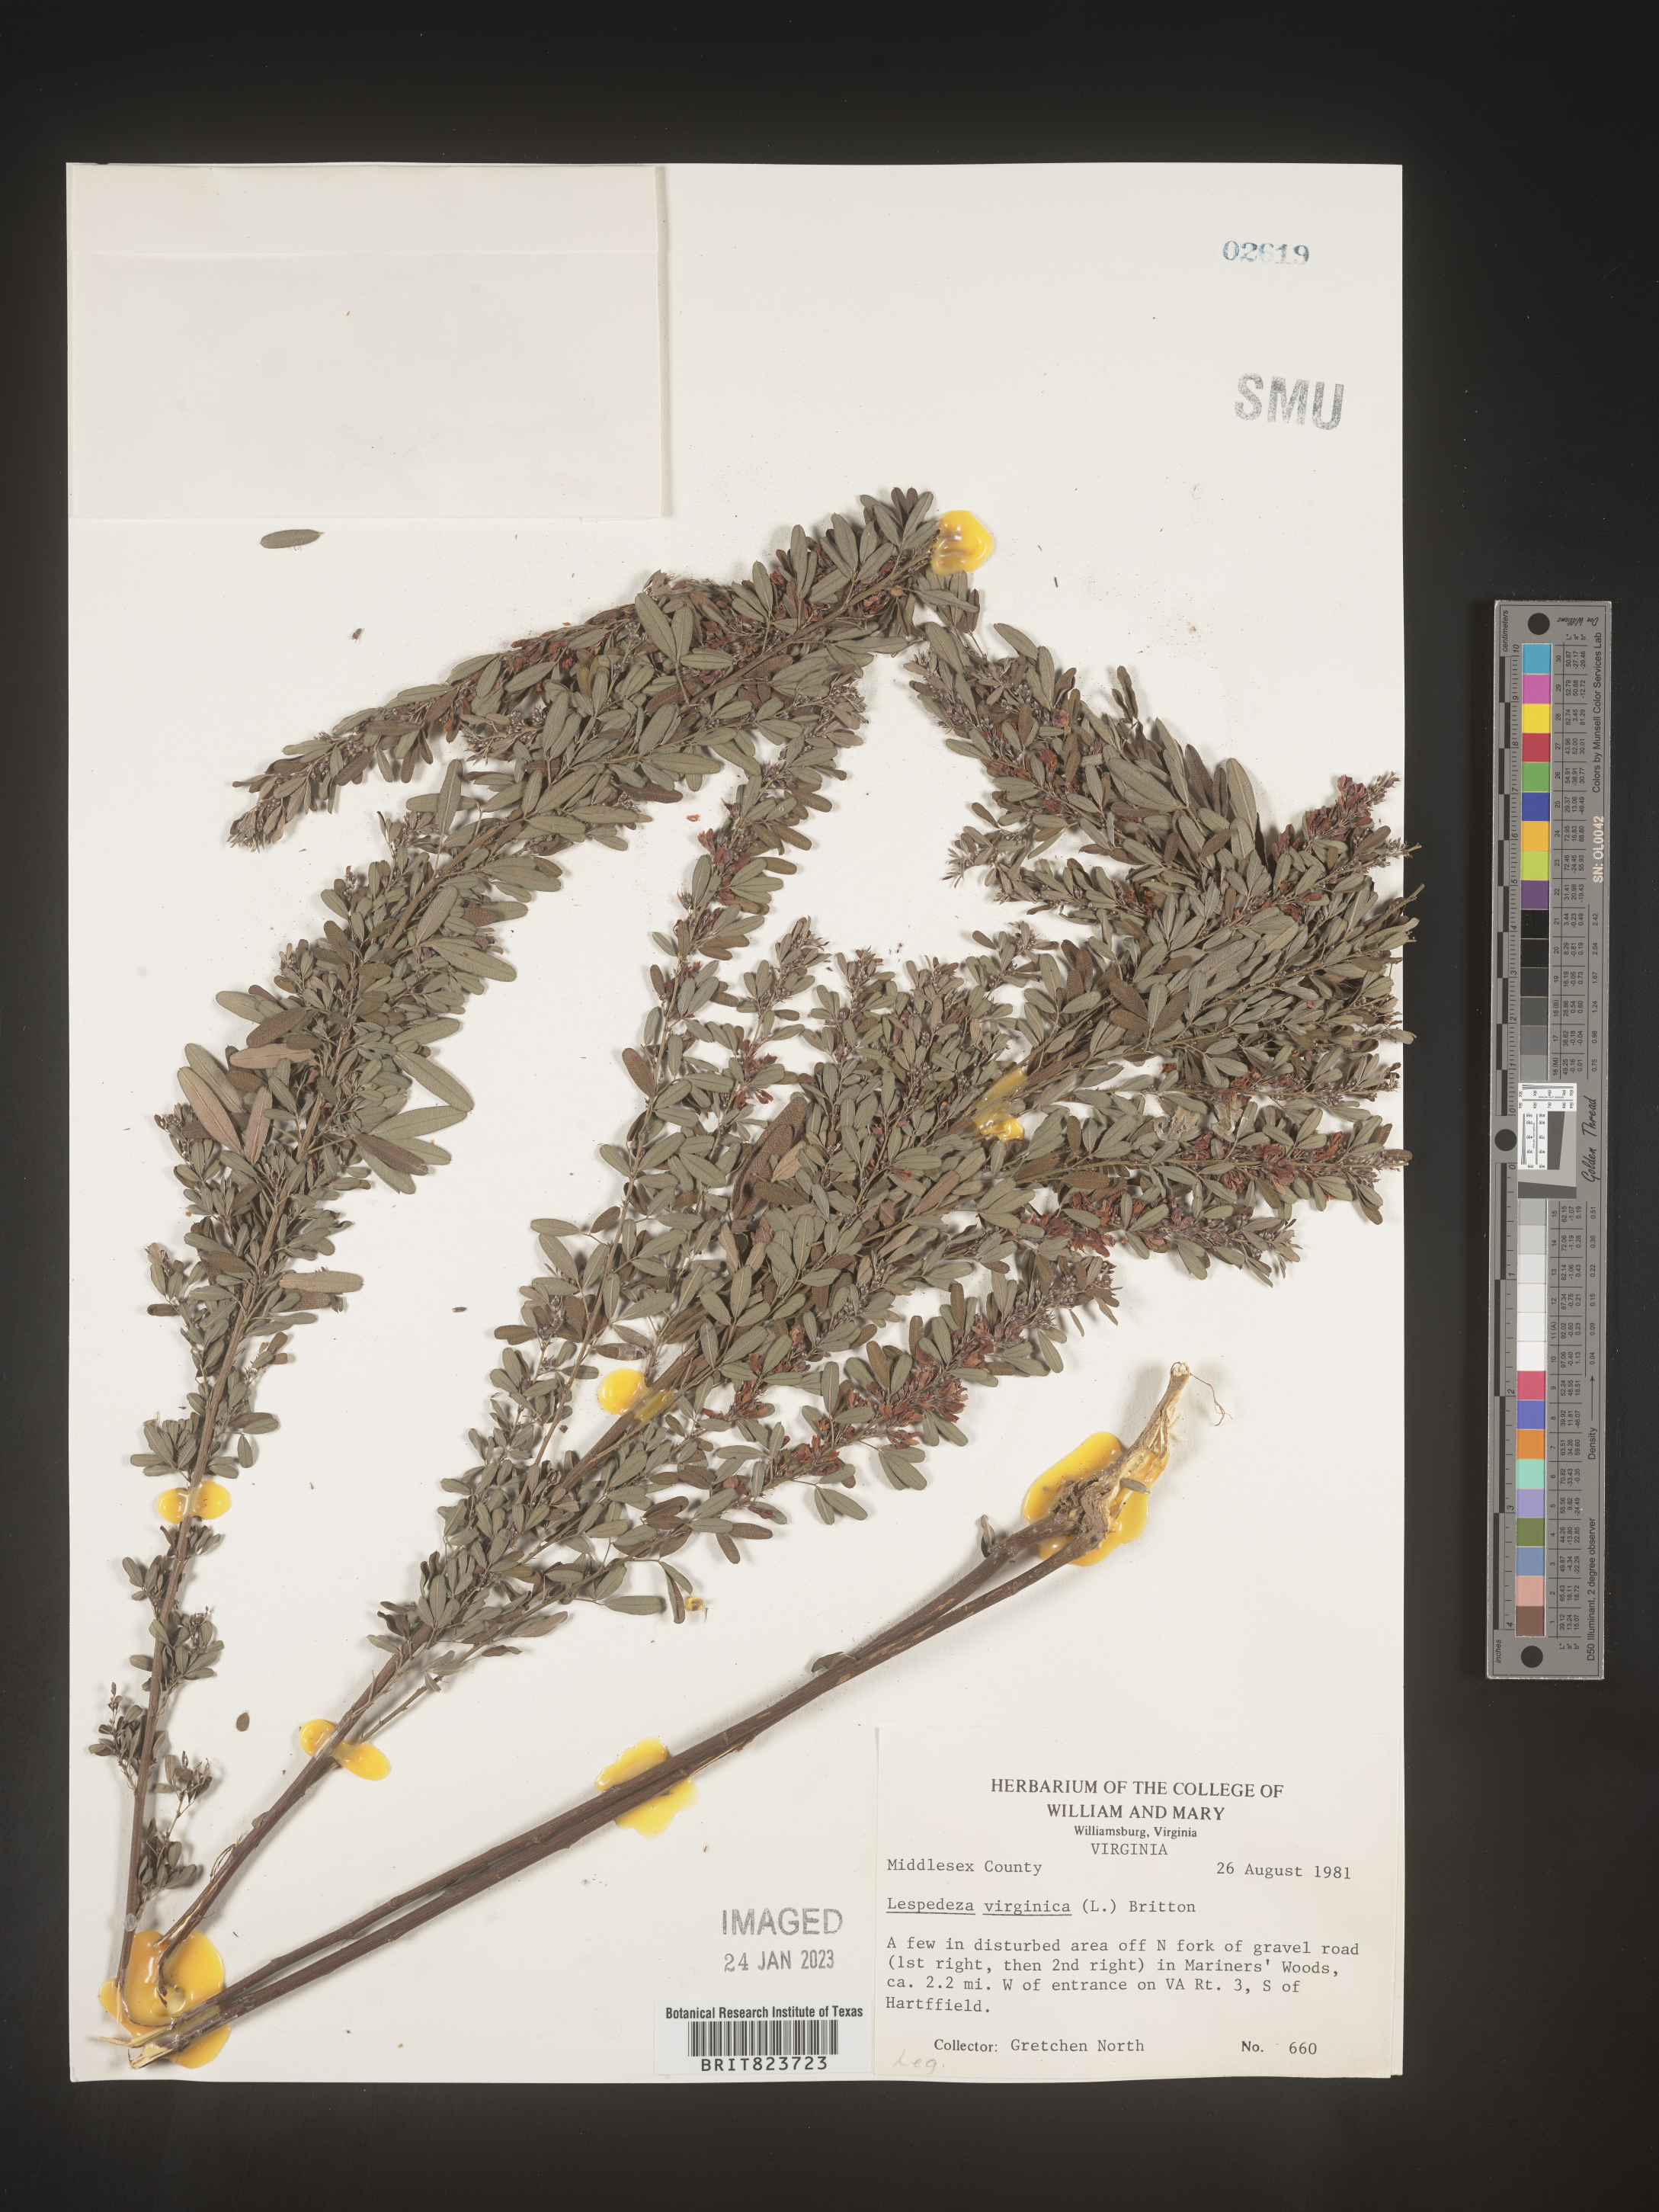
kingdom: Plantae
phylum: Tracheophyta
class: Magnoliopsida
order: Fabales
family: Fabaceae
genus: Lespedeza
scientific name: Lespedeza virginica
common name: Slender bush-clover
